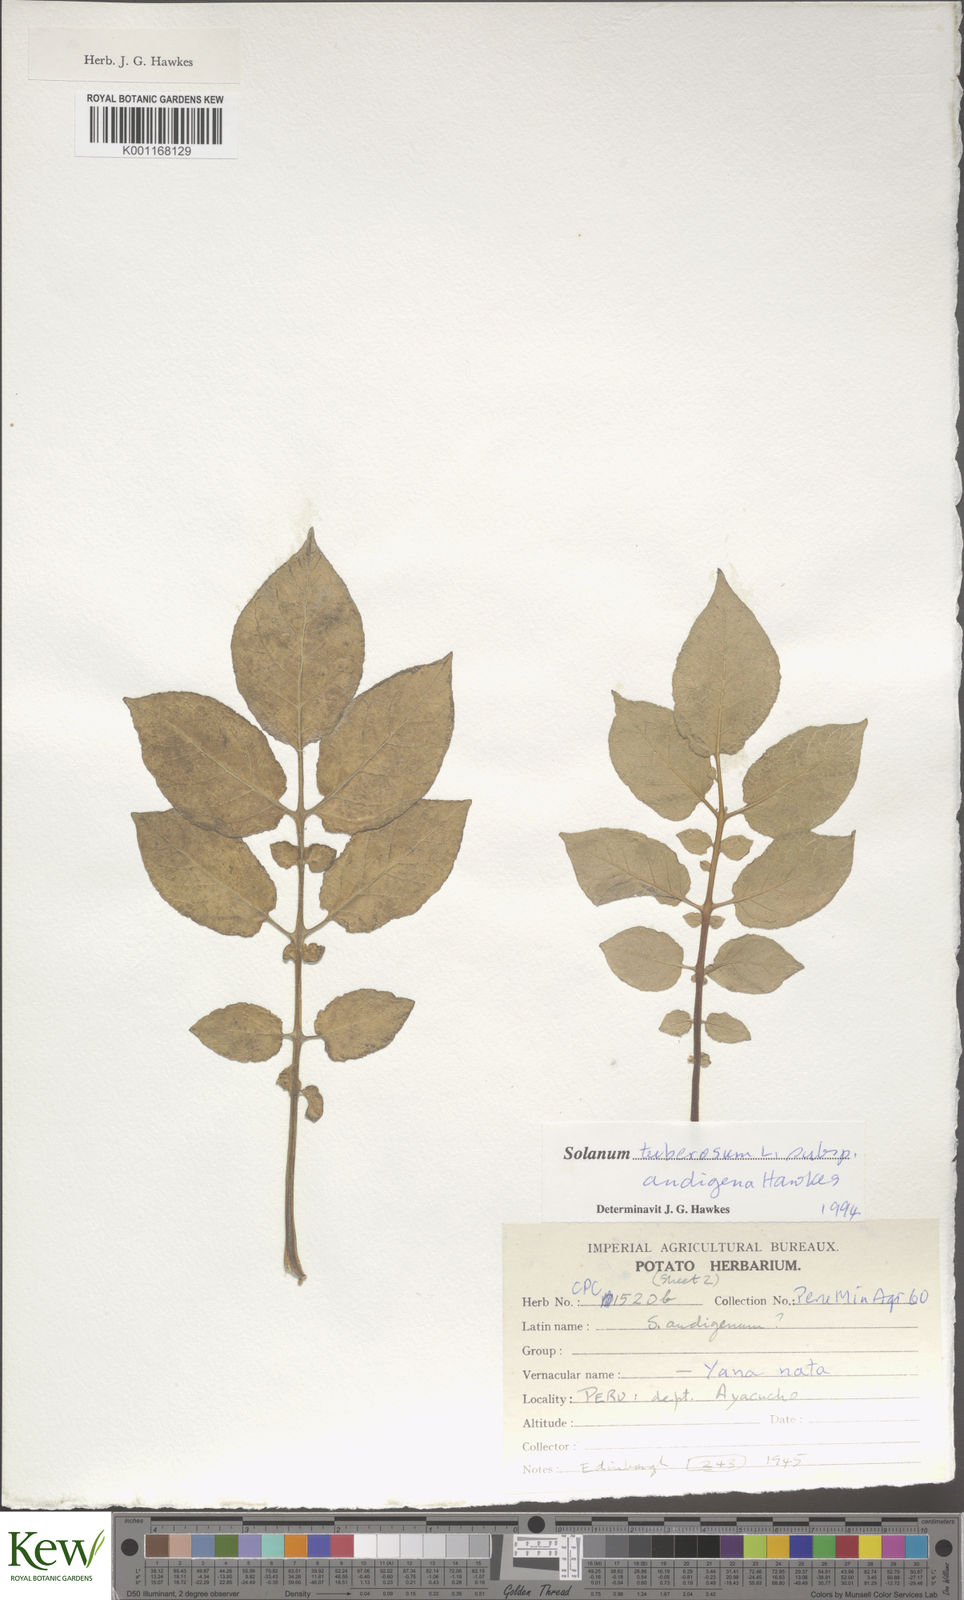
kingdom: Plantae
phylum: Tracheophyta
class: Magnoliopsida
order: Solanales
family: Solanaceae
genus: Solanum
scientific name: Solanum tuberosum
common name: Potato
